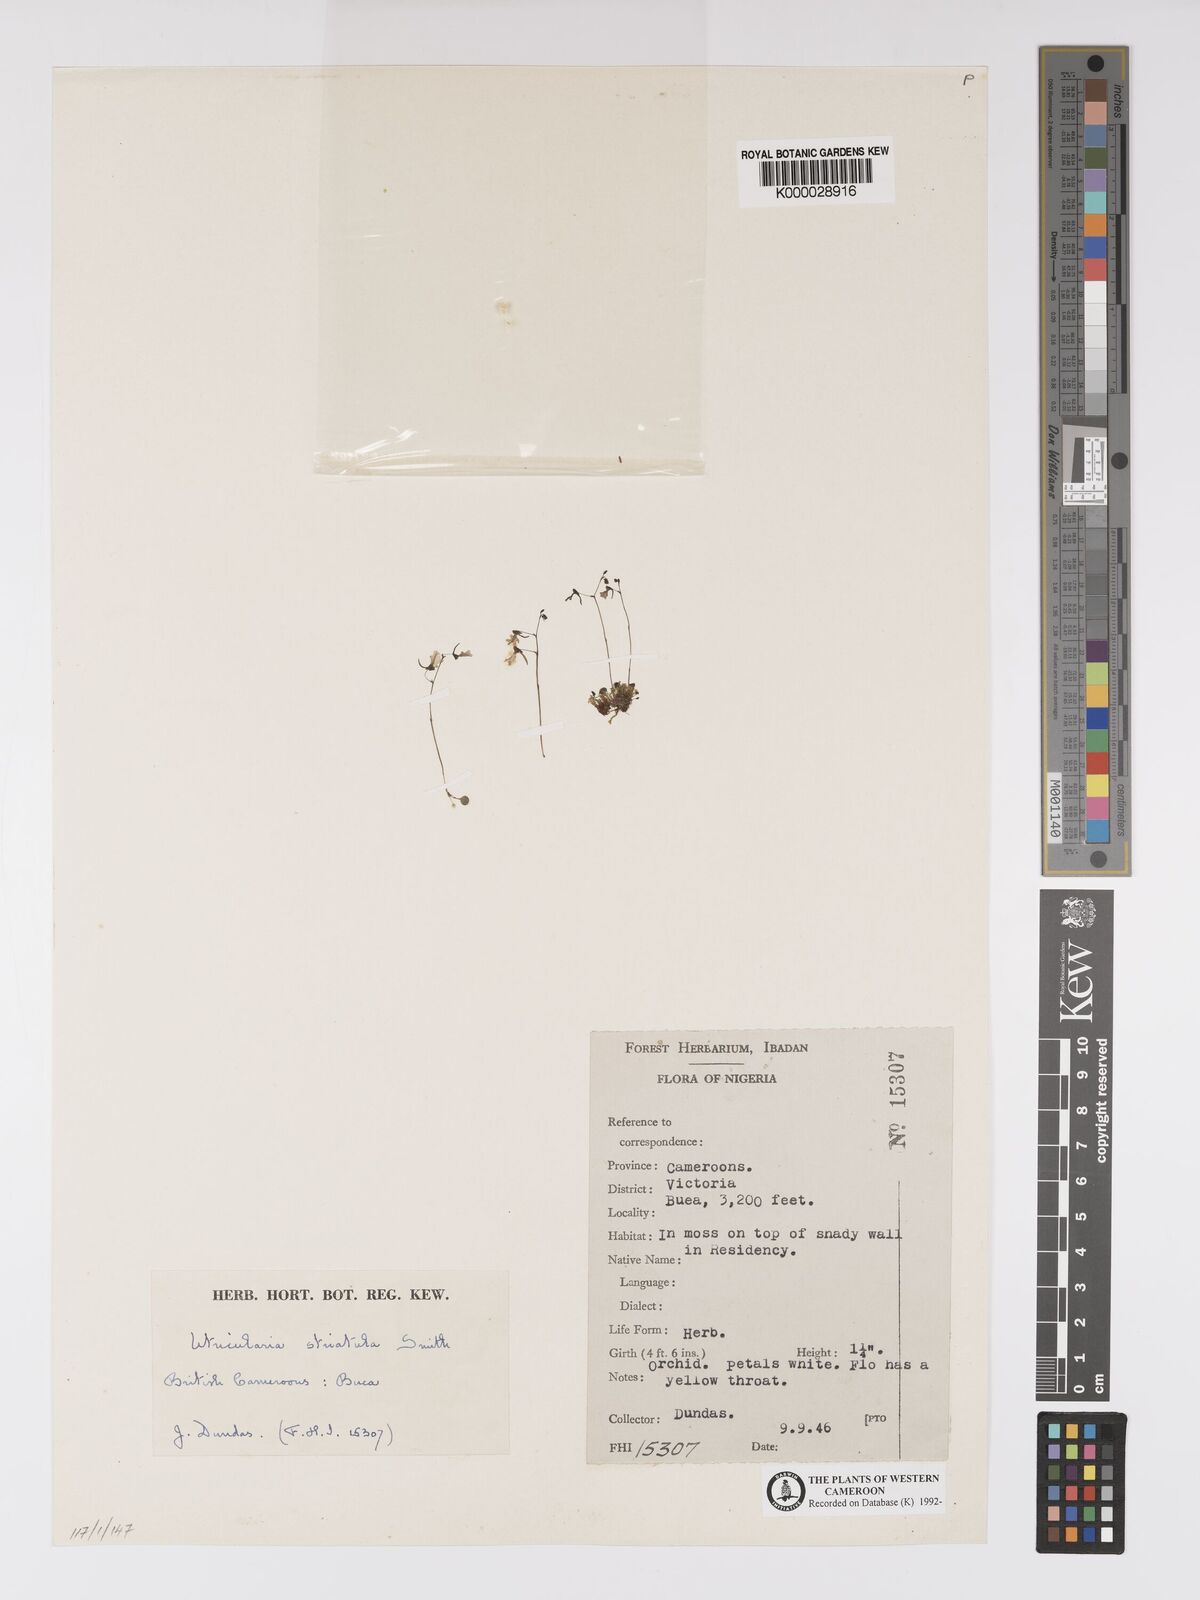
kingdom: Plantae
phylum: Tracheophyta
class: Magnoliopsida
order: Lamiales
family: Lentibulariaceae
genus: Utricularia
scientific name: Utricularia striatula
